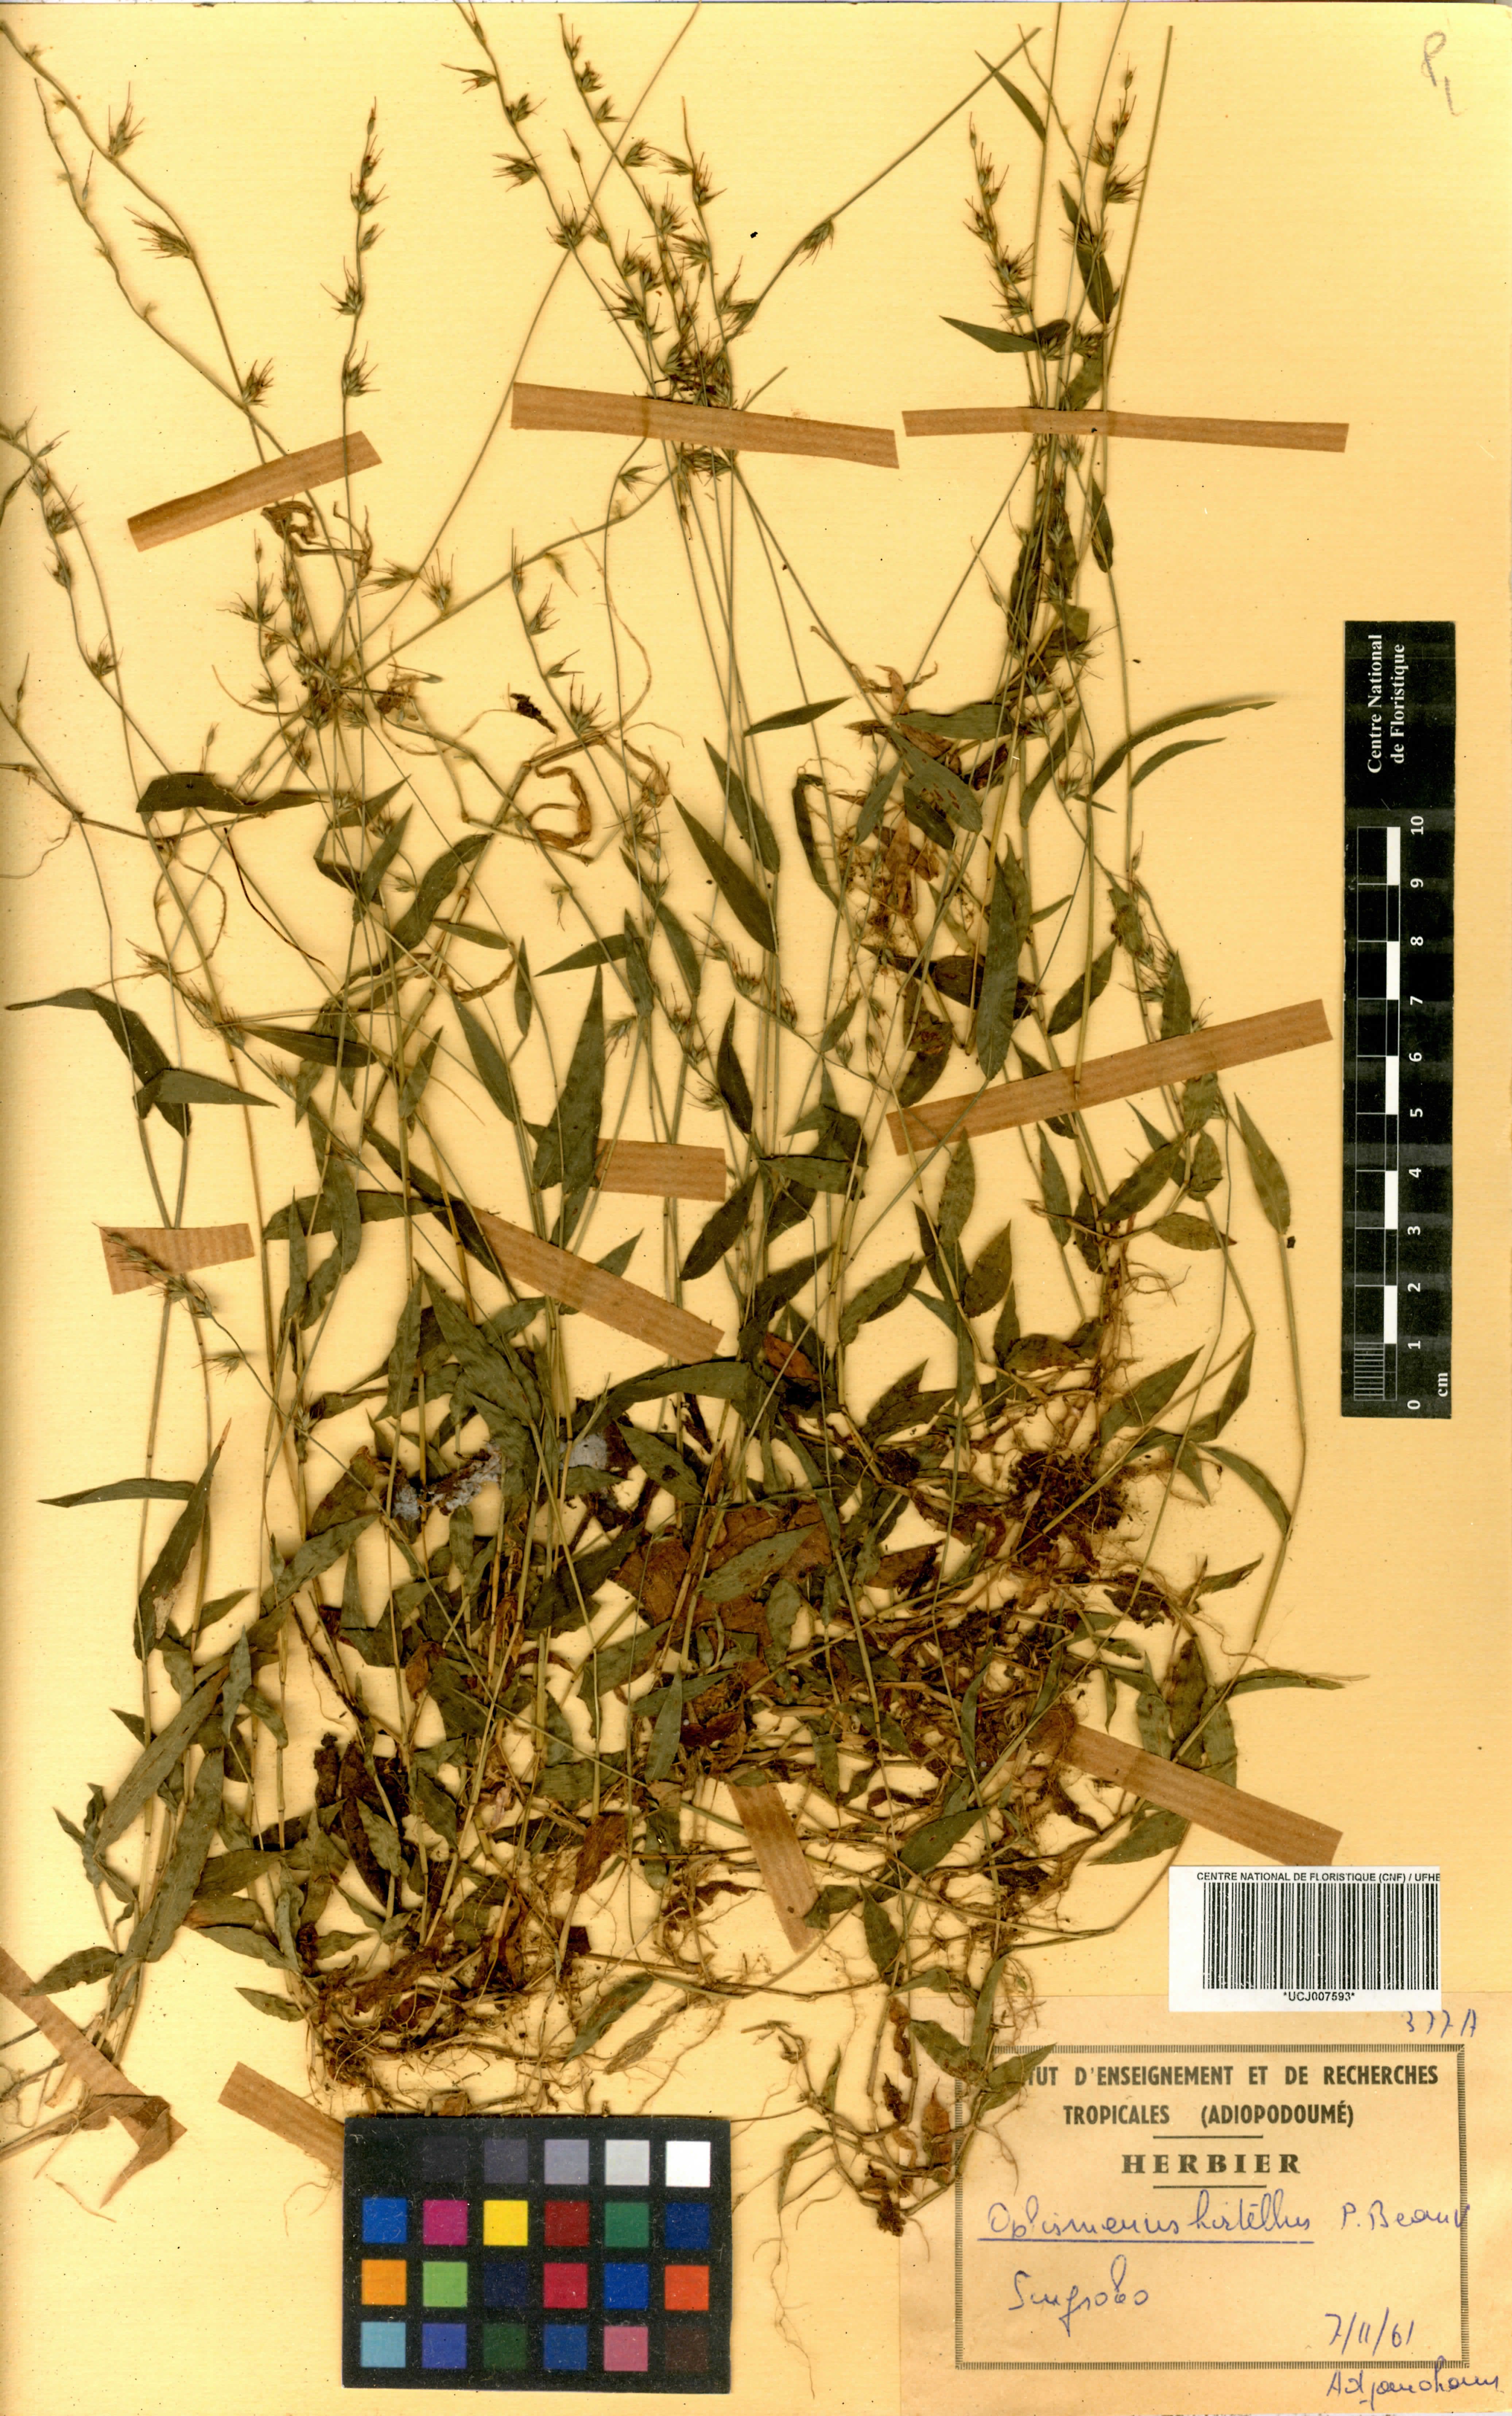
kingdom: Plantae
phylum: Tracheophyta
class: Liliopsida
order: Poales
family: Poaceae
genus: Oplismenus
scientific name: Oplismenus hirtellus
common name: Basketgrass
